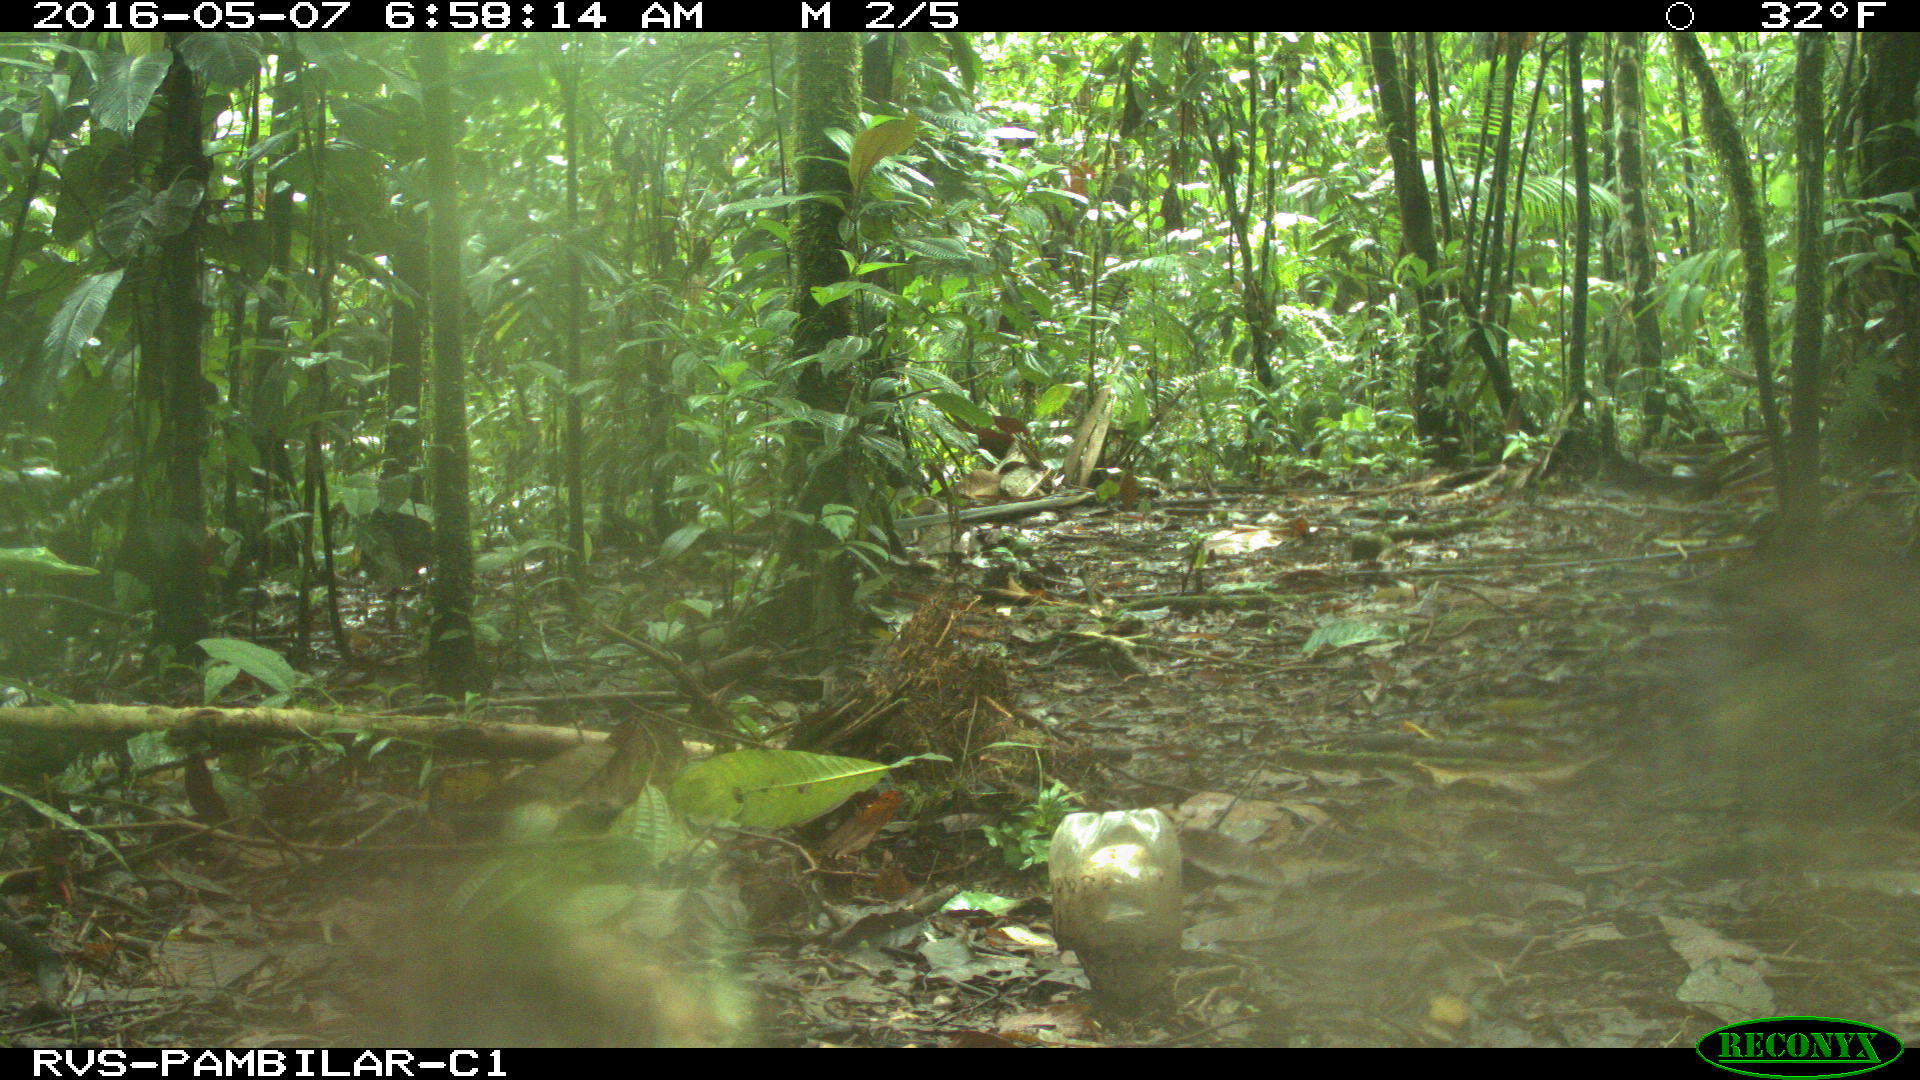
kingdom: Animalia
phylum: Chordata
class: Mammalia
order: Rodentia
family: Dasyproctidae
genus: Dasyprocta
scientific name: Dasyprocta punctata
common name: Central american agouti
